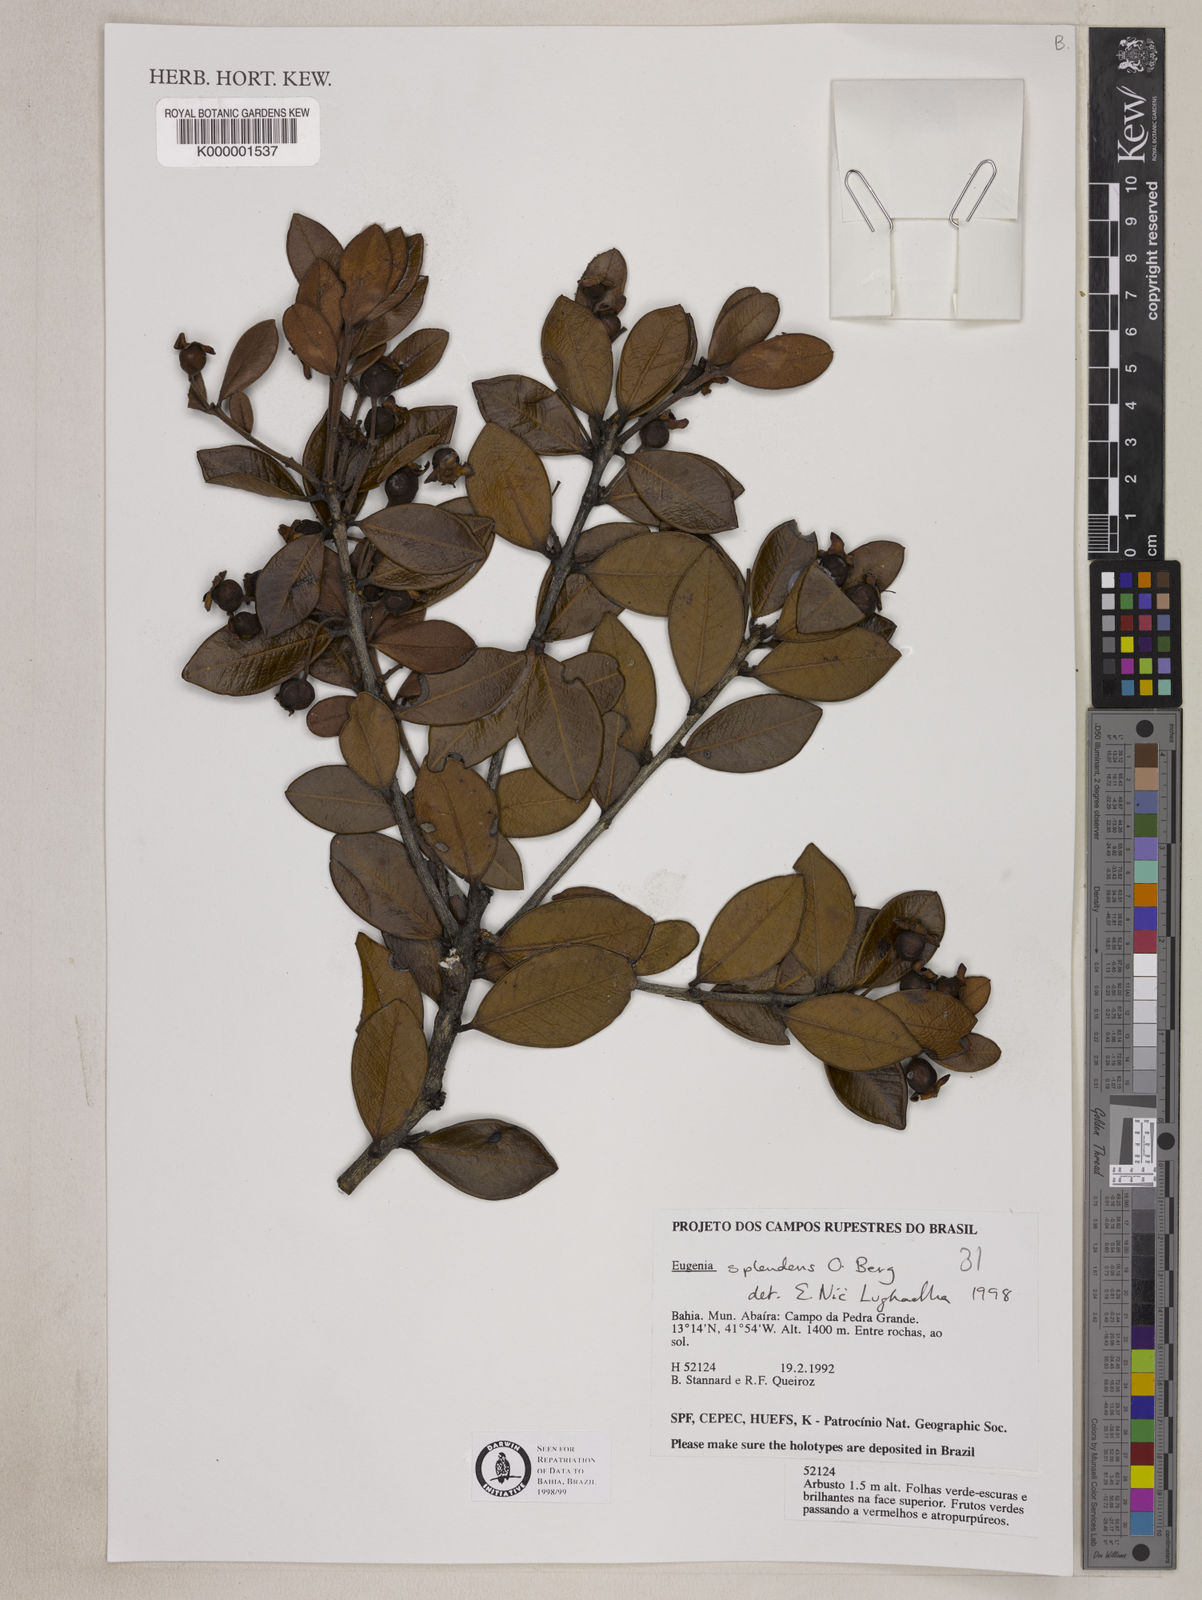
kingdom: Plantae
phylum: Tracheophyta
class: Magnoliopsida
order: Myrtales
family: Myrtaceae
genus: Eugenia
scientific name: Eugenia splendens
